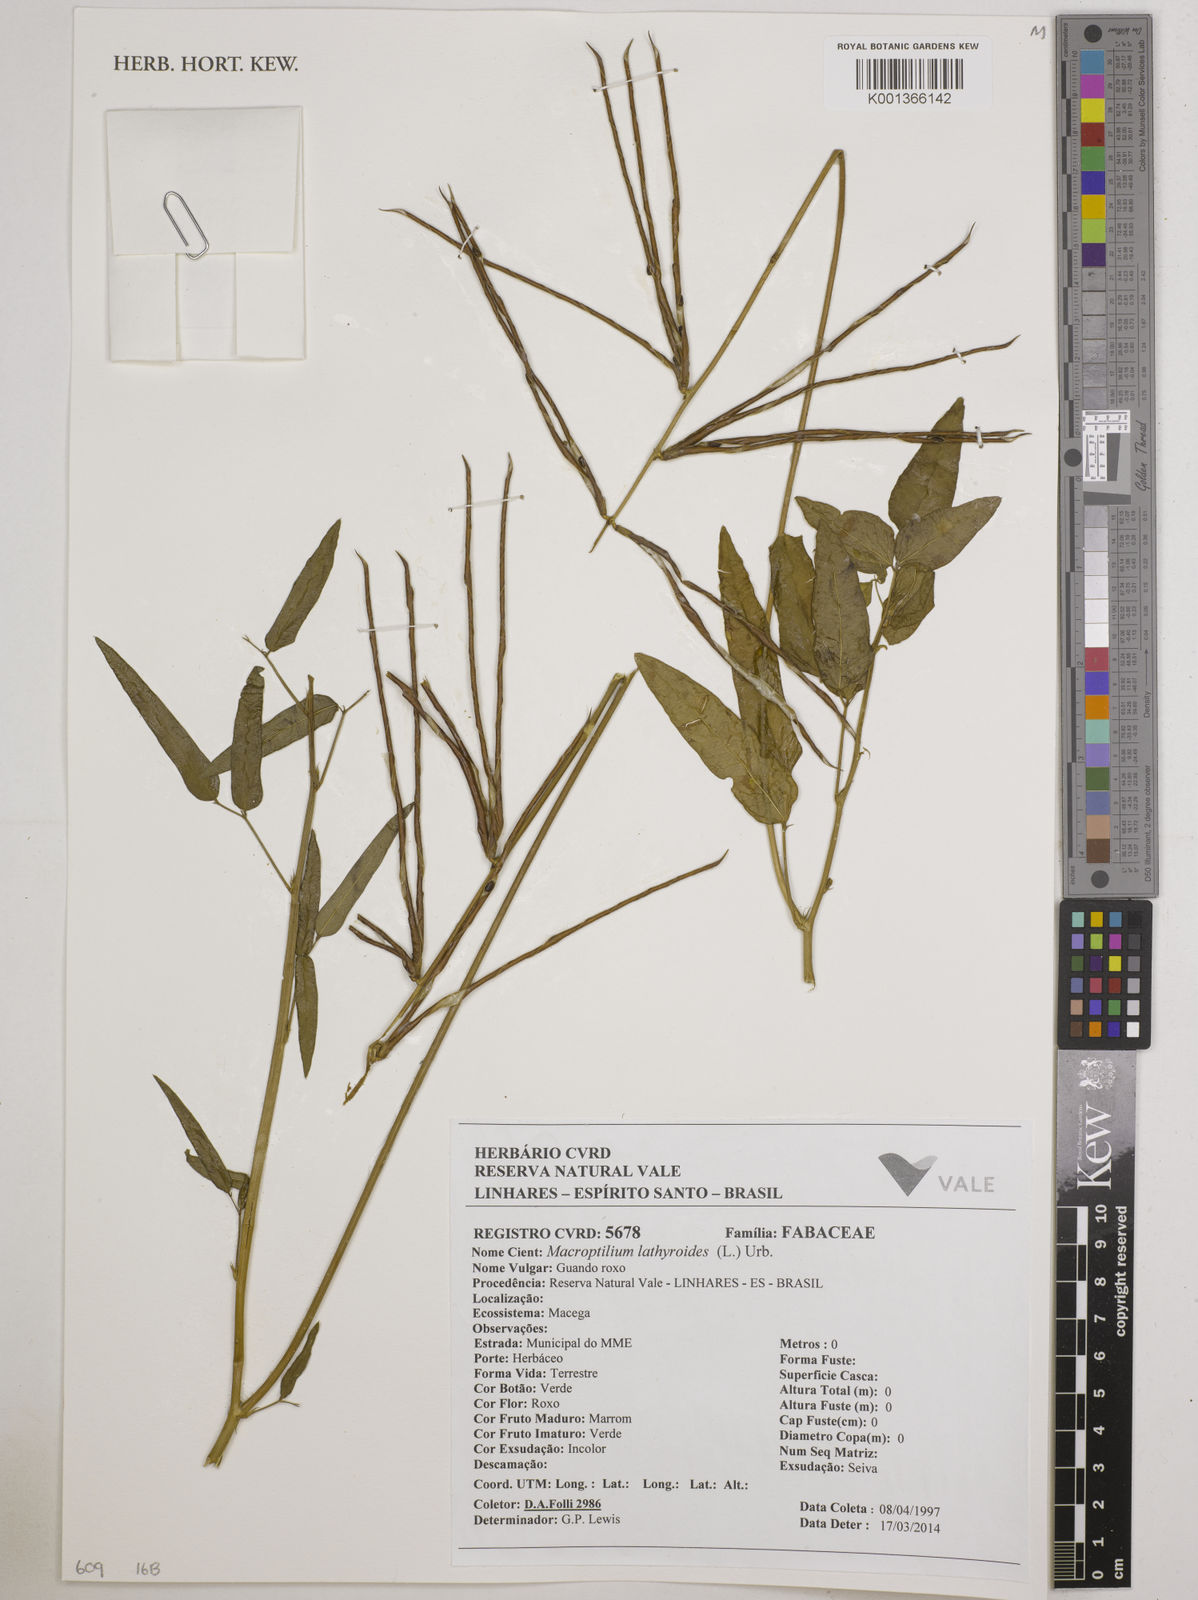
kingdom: Plantae
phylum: Tracheophyta
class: Magnoliopsida
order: Fabales
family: Fabaceae
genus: Macroptilium
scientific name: Macroptilium lathyroides
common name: Wild bushbean
